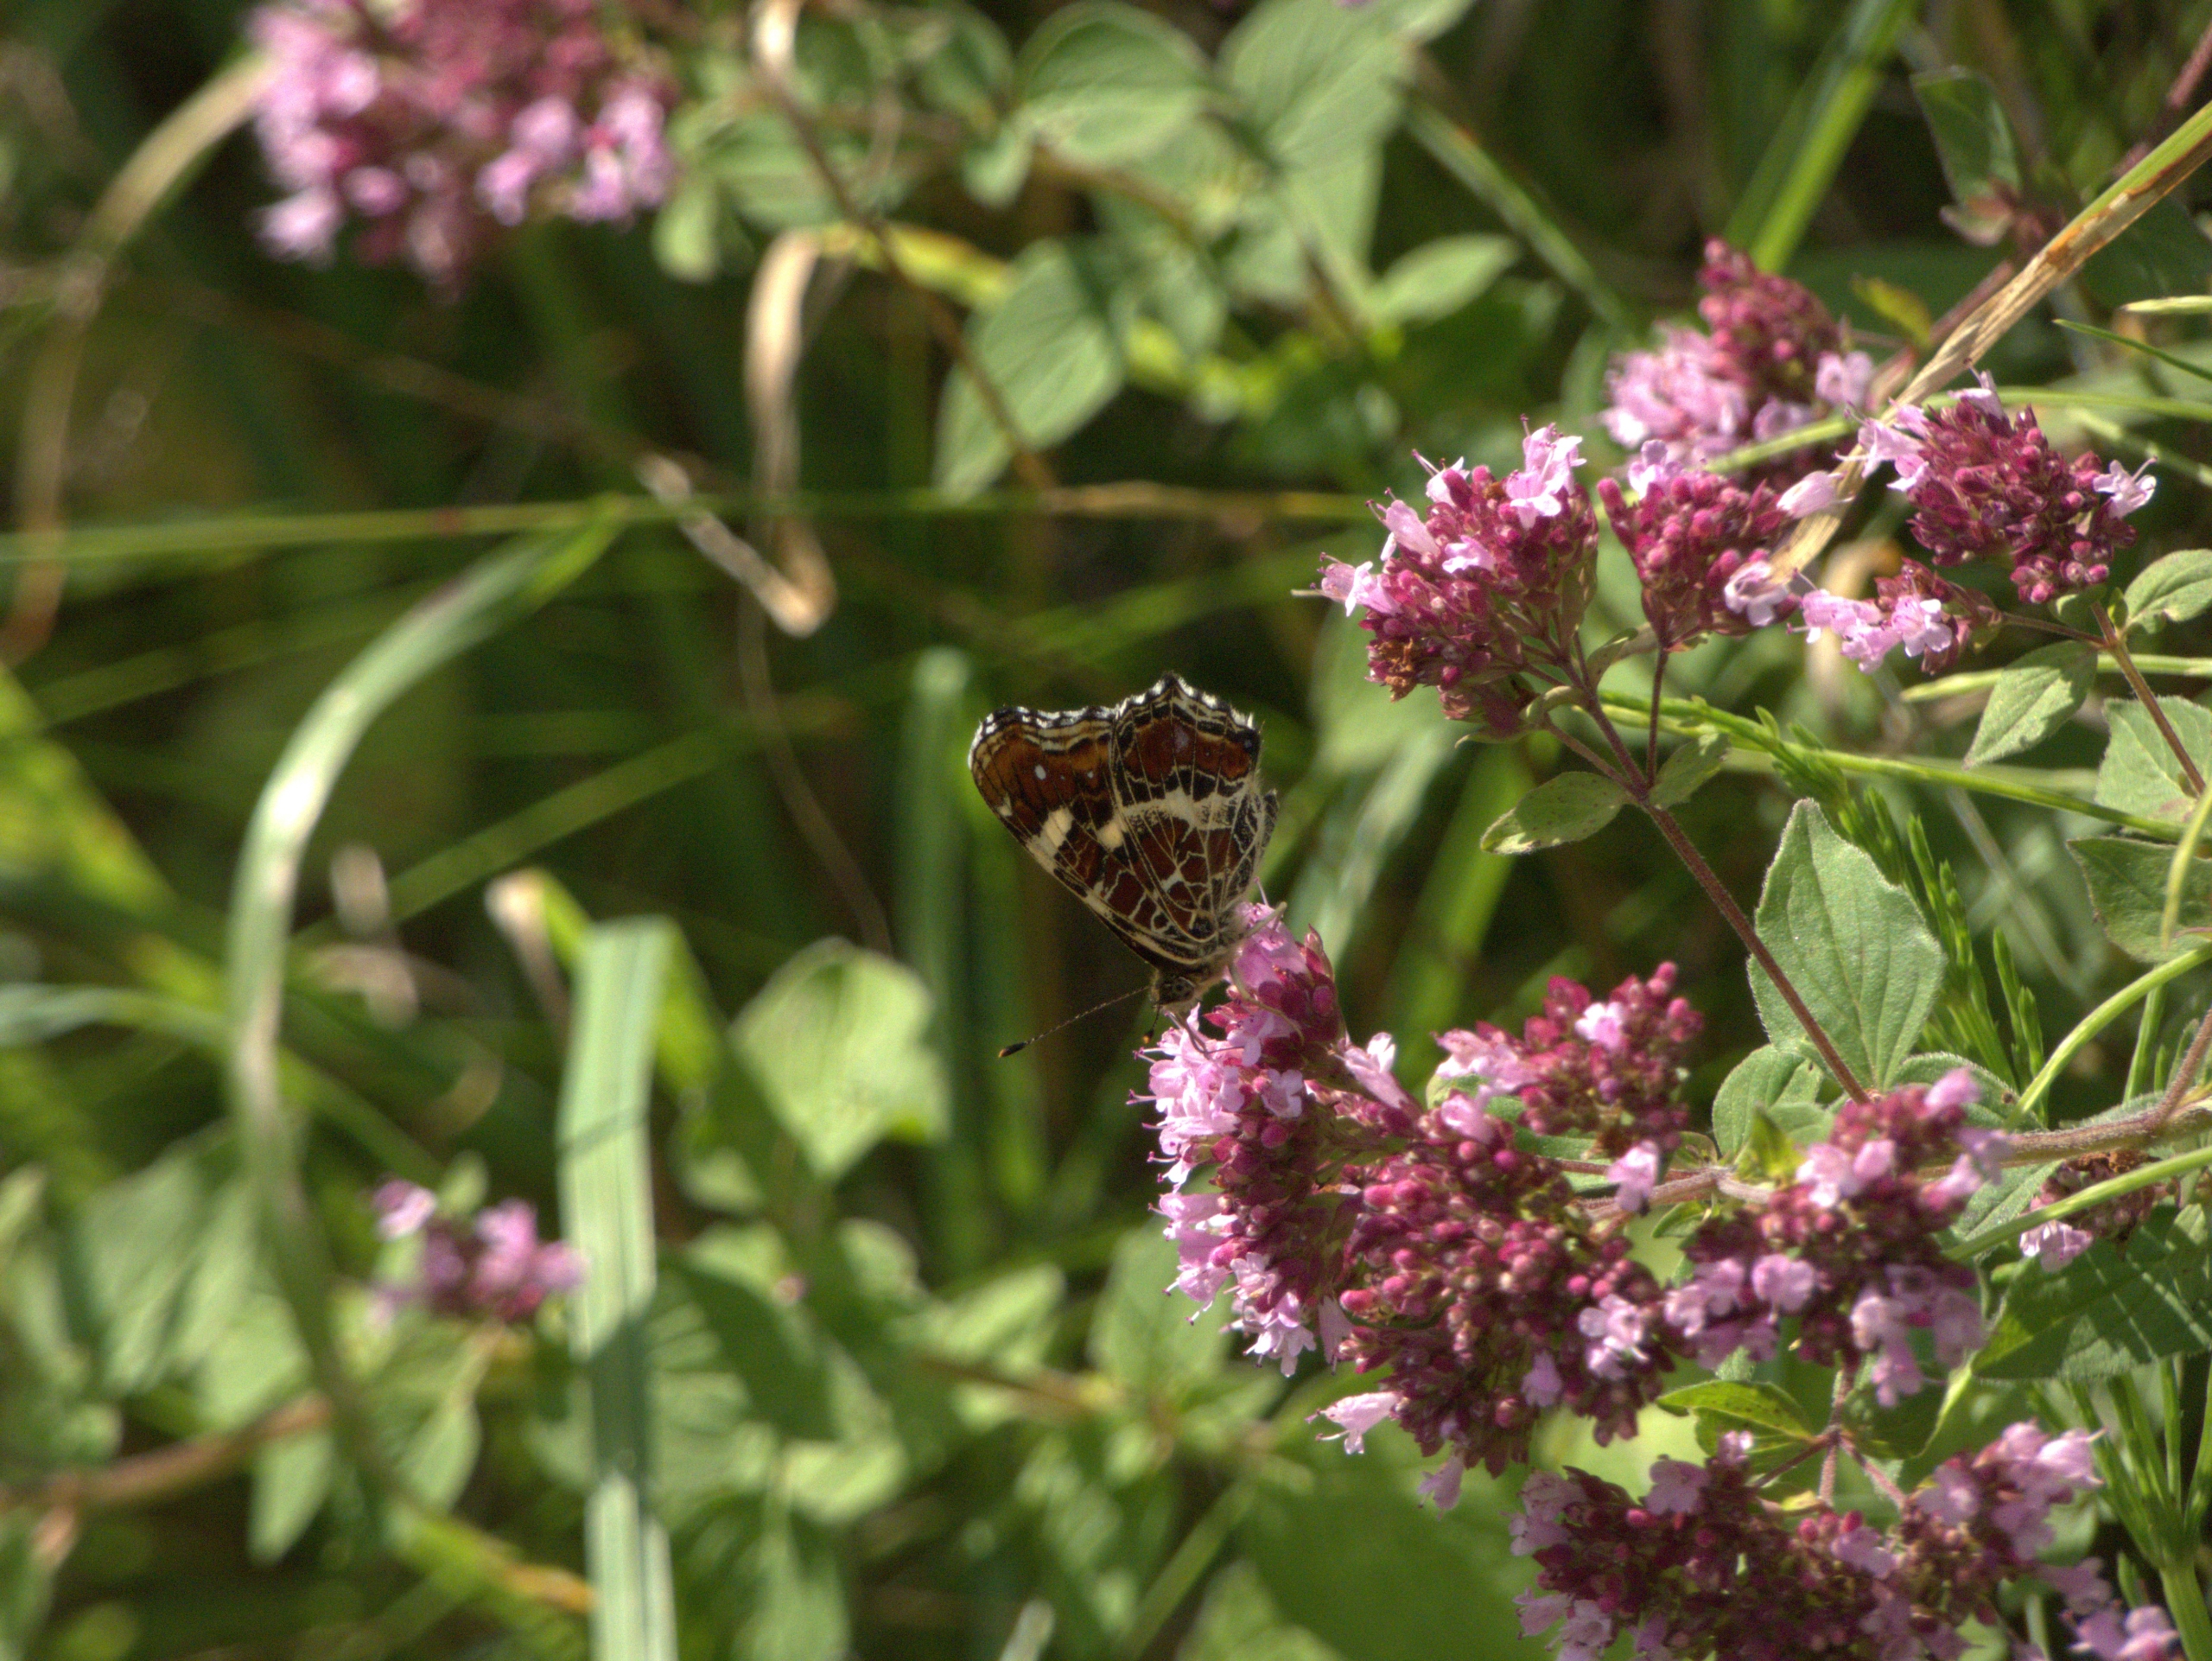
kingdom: Animalia
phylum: Arthropoda
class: Insecta
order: Lepidoptera
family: Nymphalidae
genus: Araschnia
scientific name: Araschnia levana
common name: Nældesommerfugl
